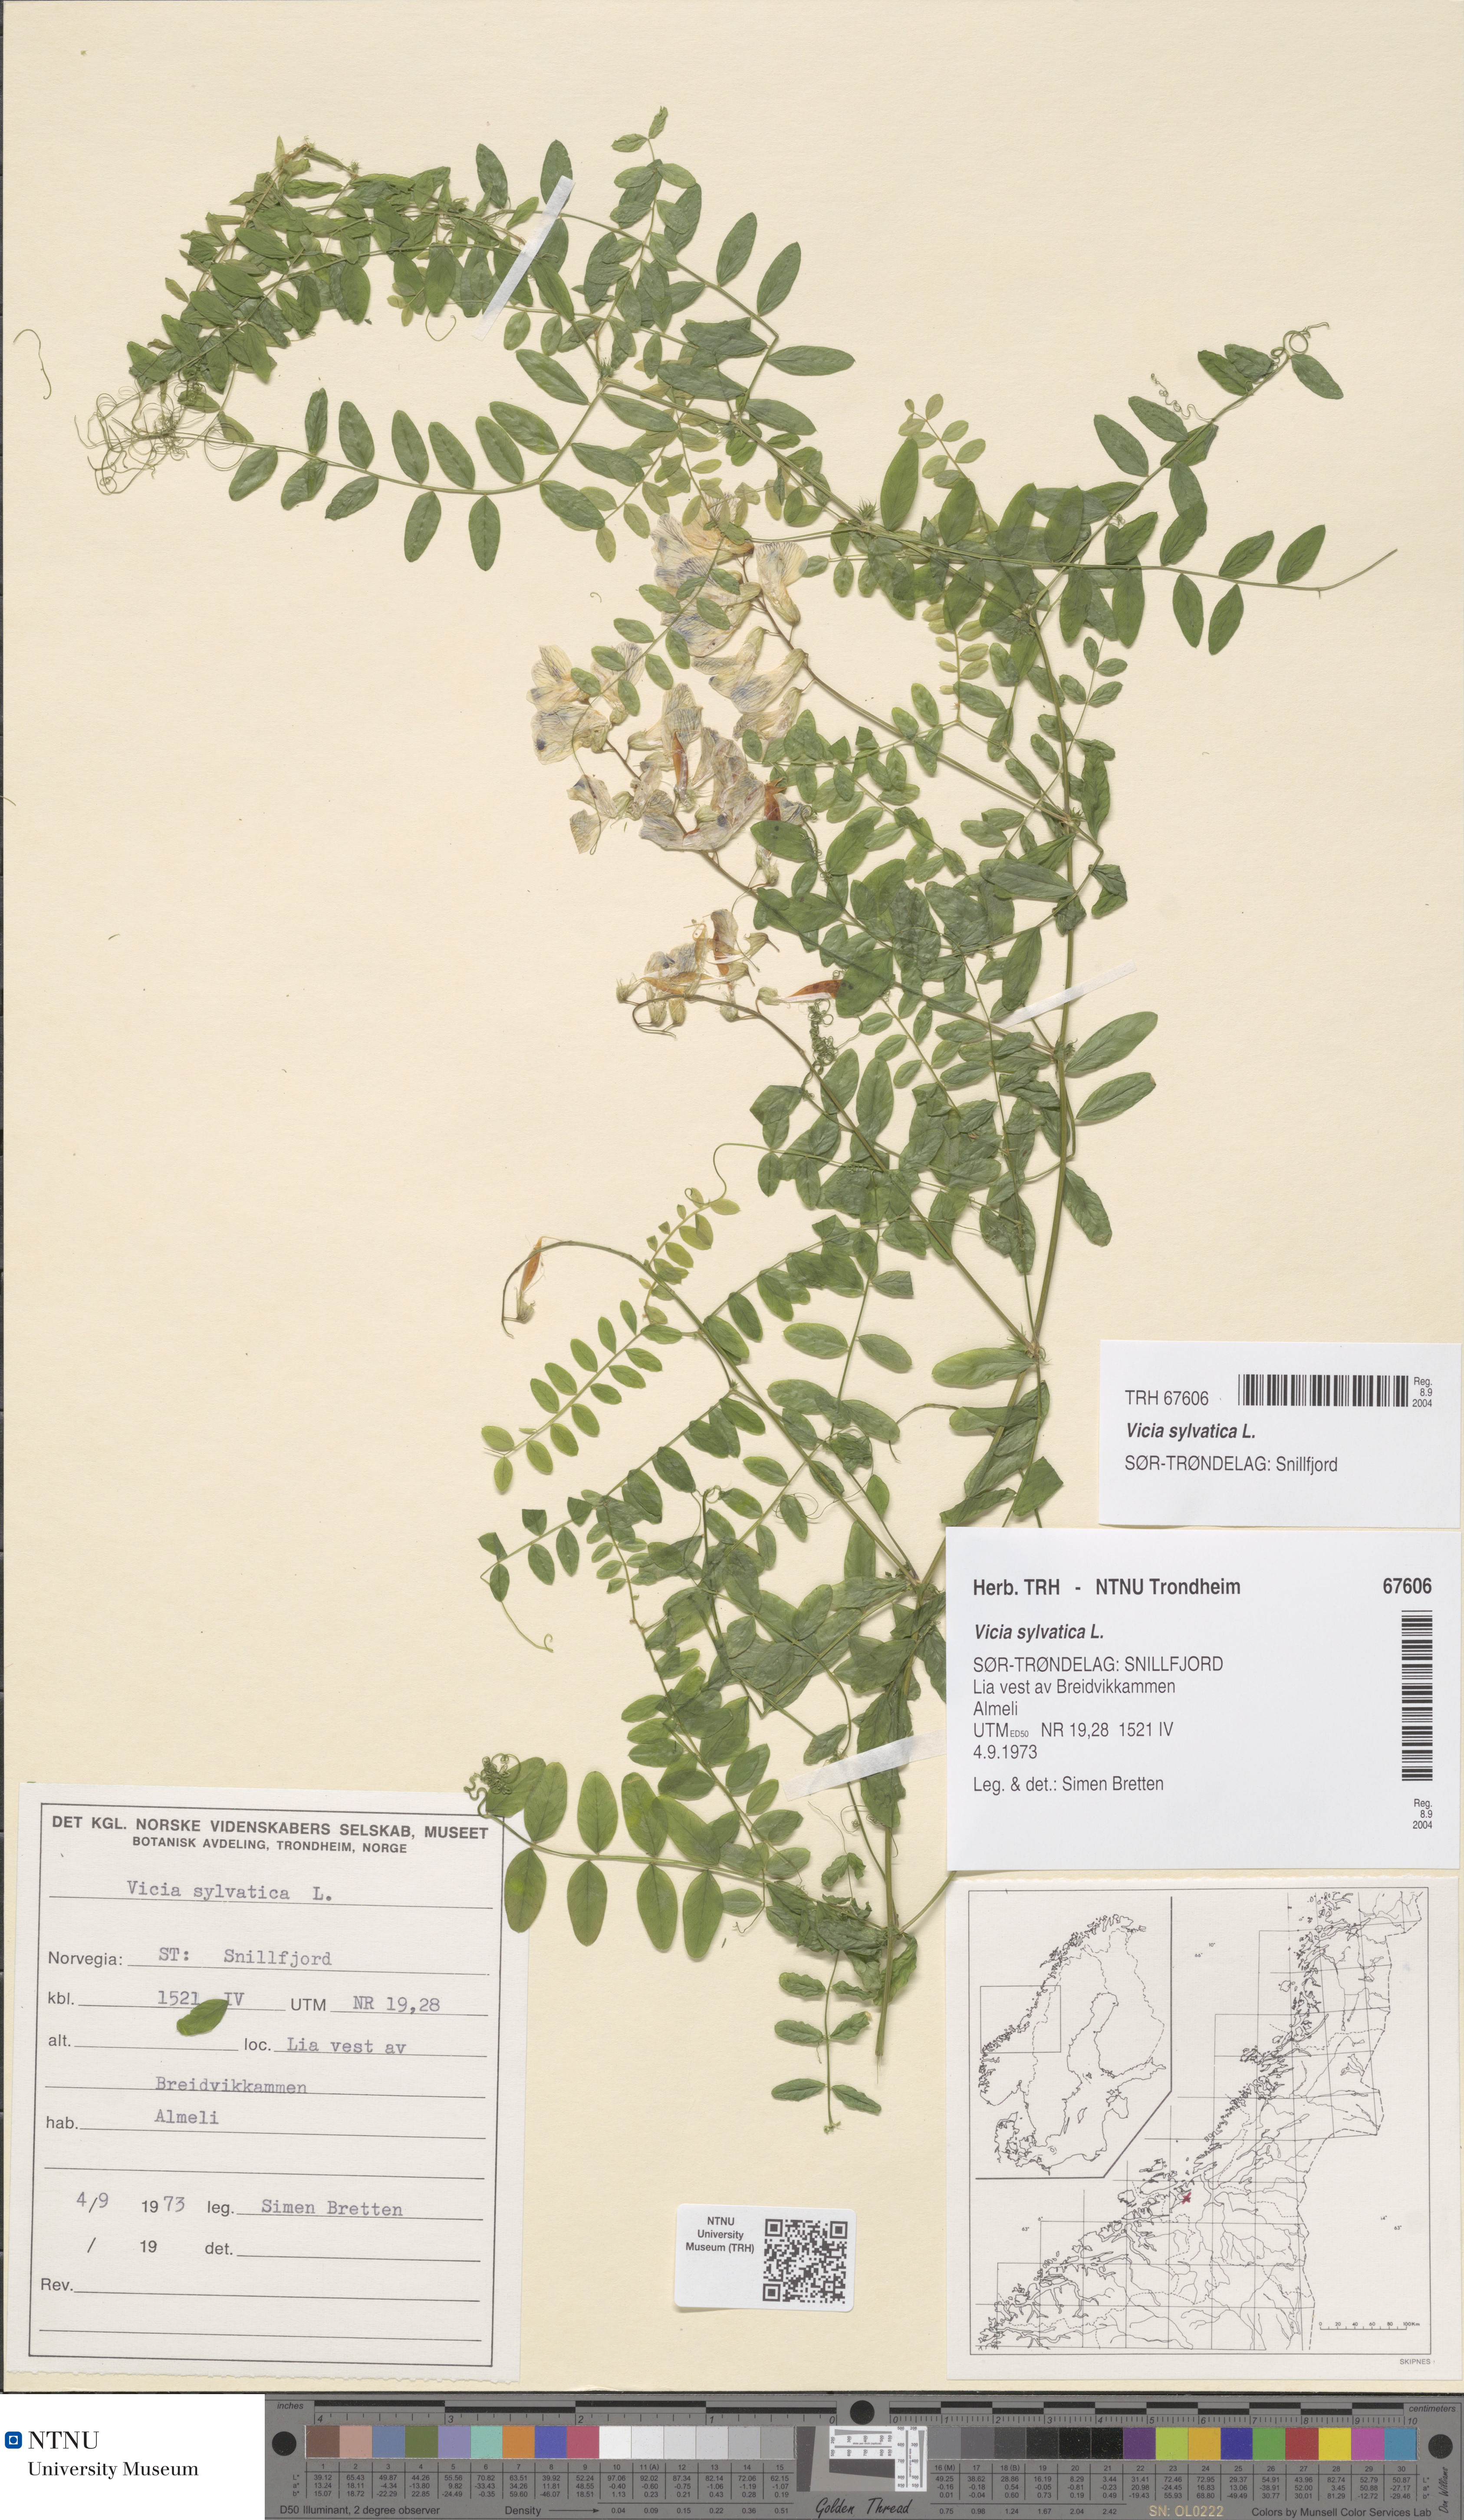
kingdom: Plantae
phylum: Tracheophyta
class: Magnoliopsida
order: Fabales
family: Fabaceae
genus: Vicia
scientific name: Vicia sylvatica
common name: Wood vetch
